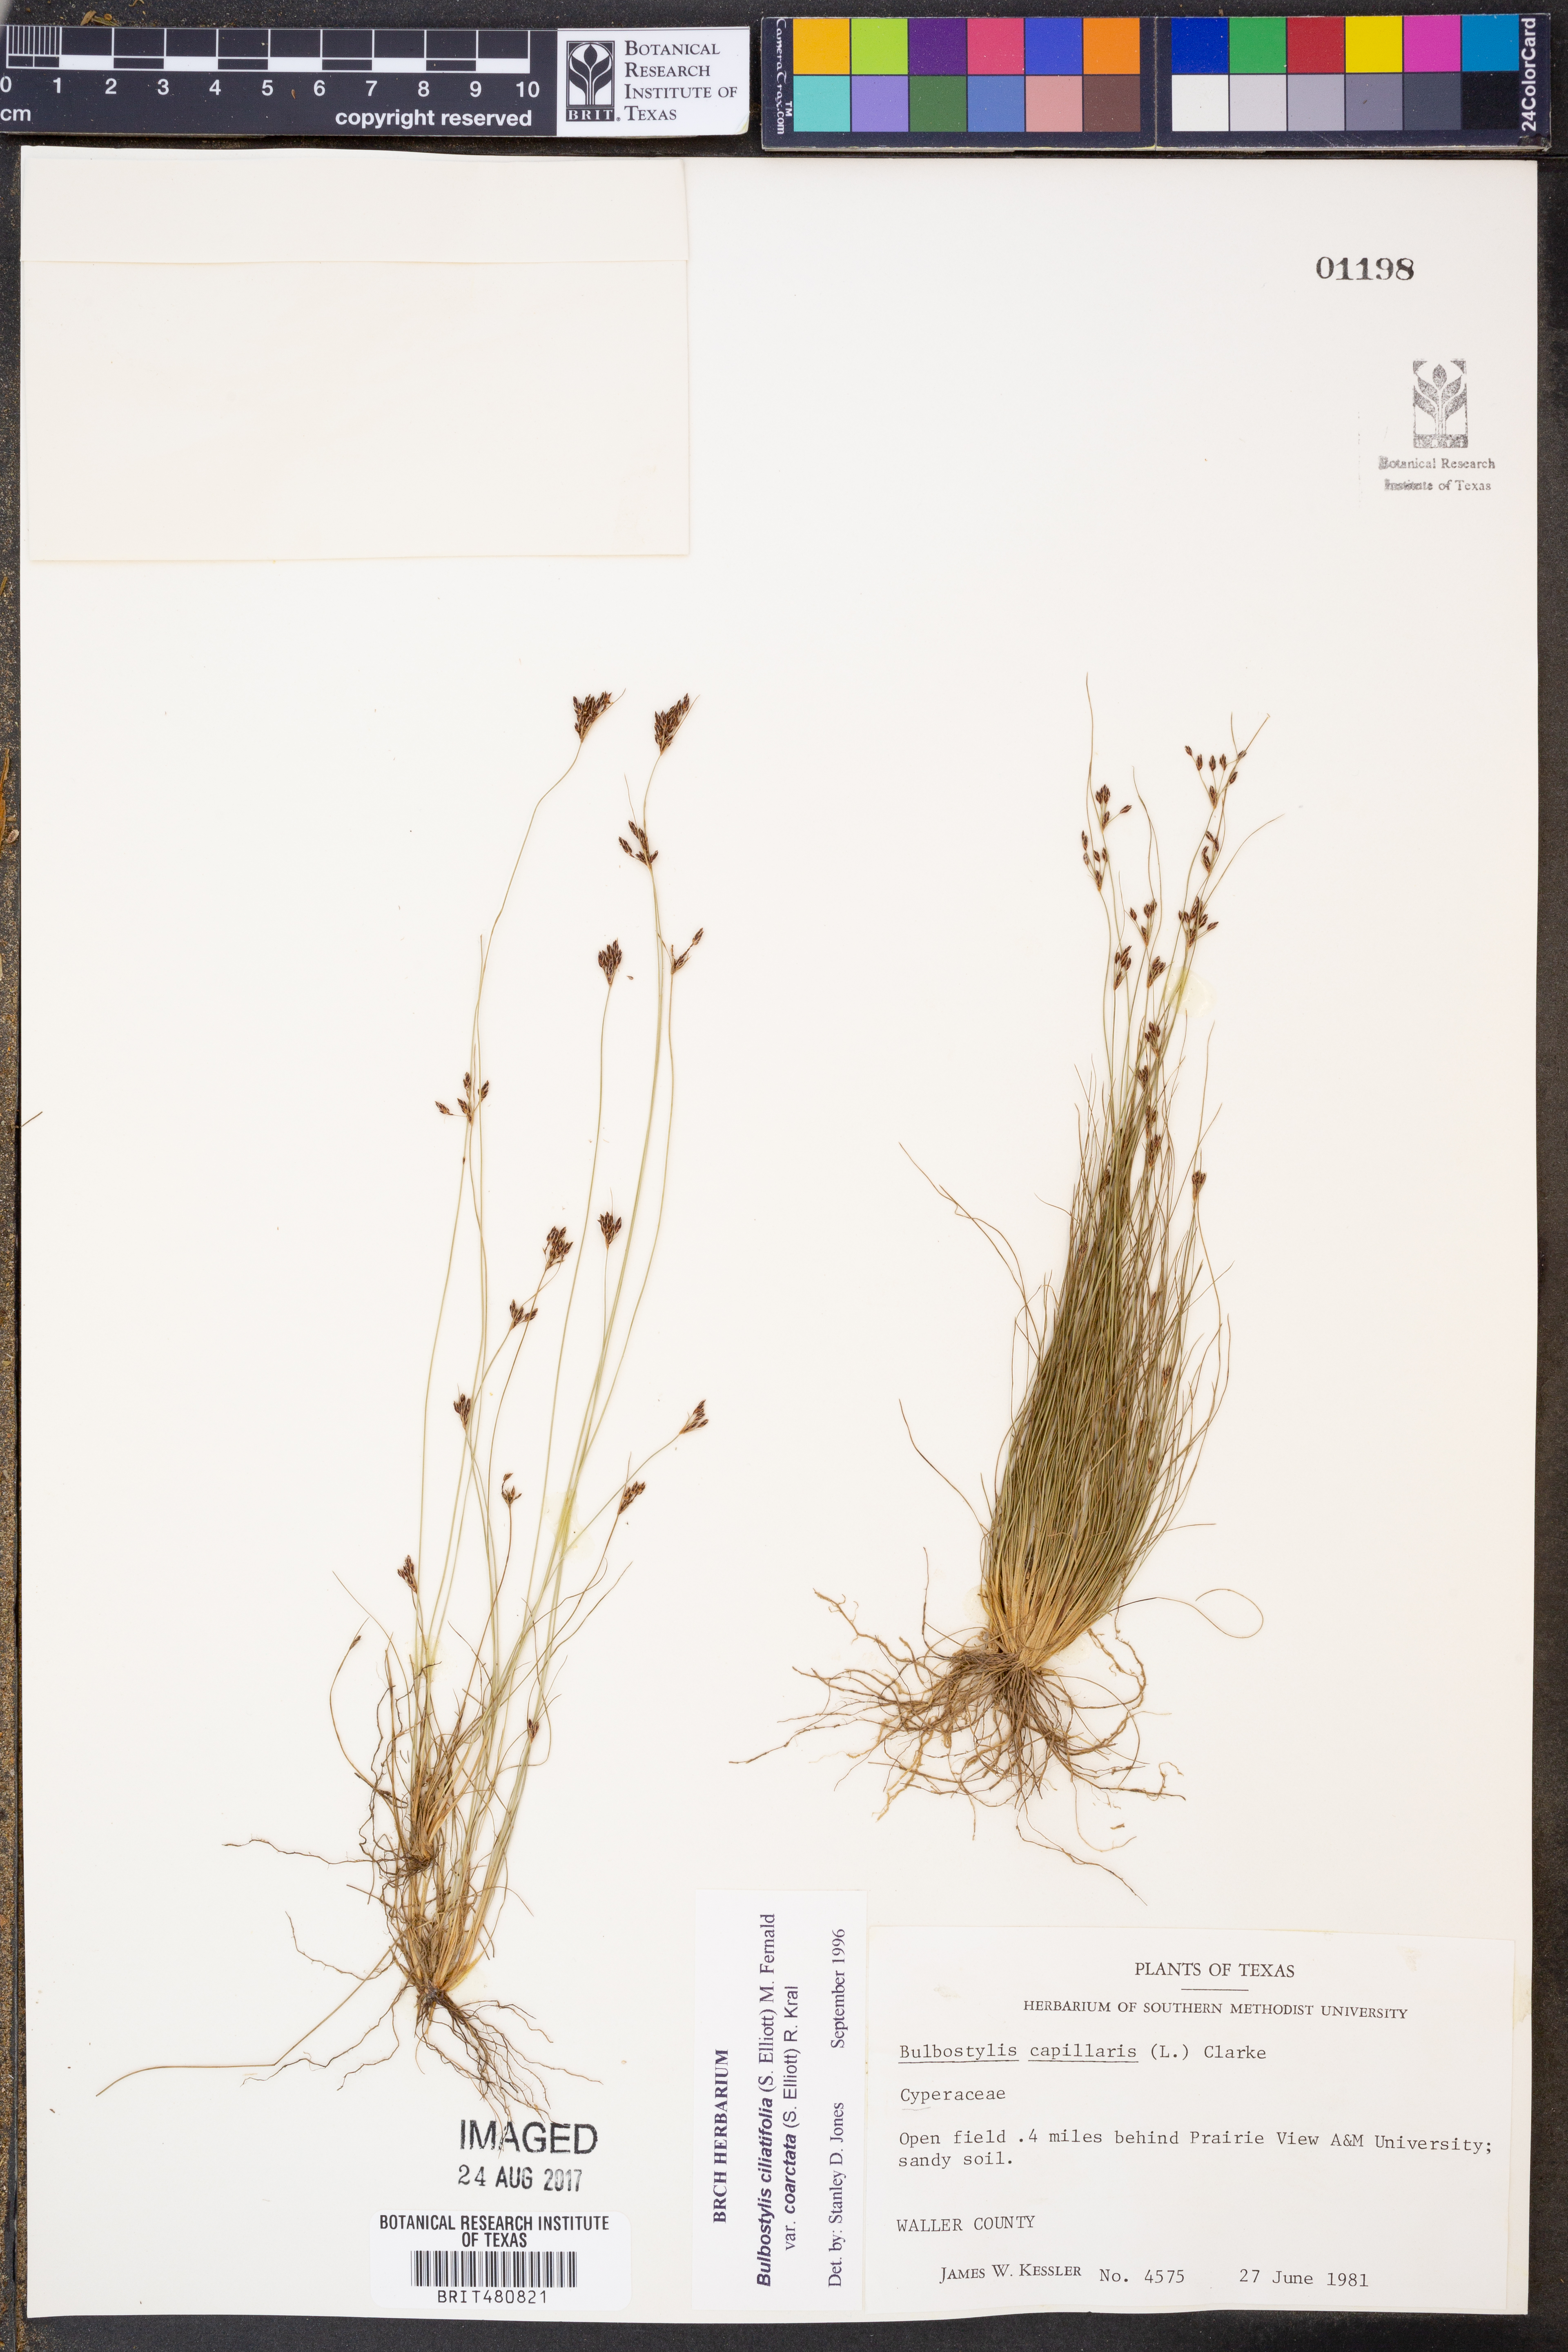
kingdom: Plantae
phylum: Tracheophyta
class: Liliopsida
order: Poales
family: Cyperaceae
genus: Bulbostylis
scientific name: Bulbostylis ciliatifolia
